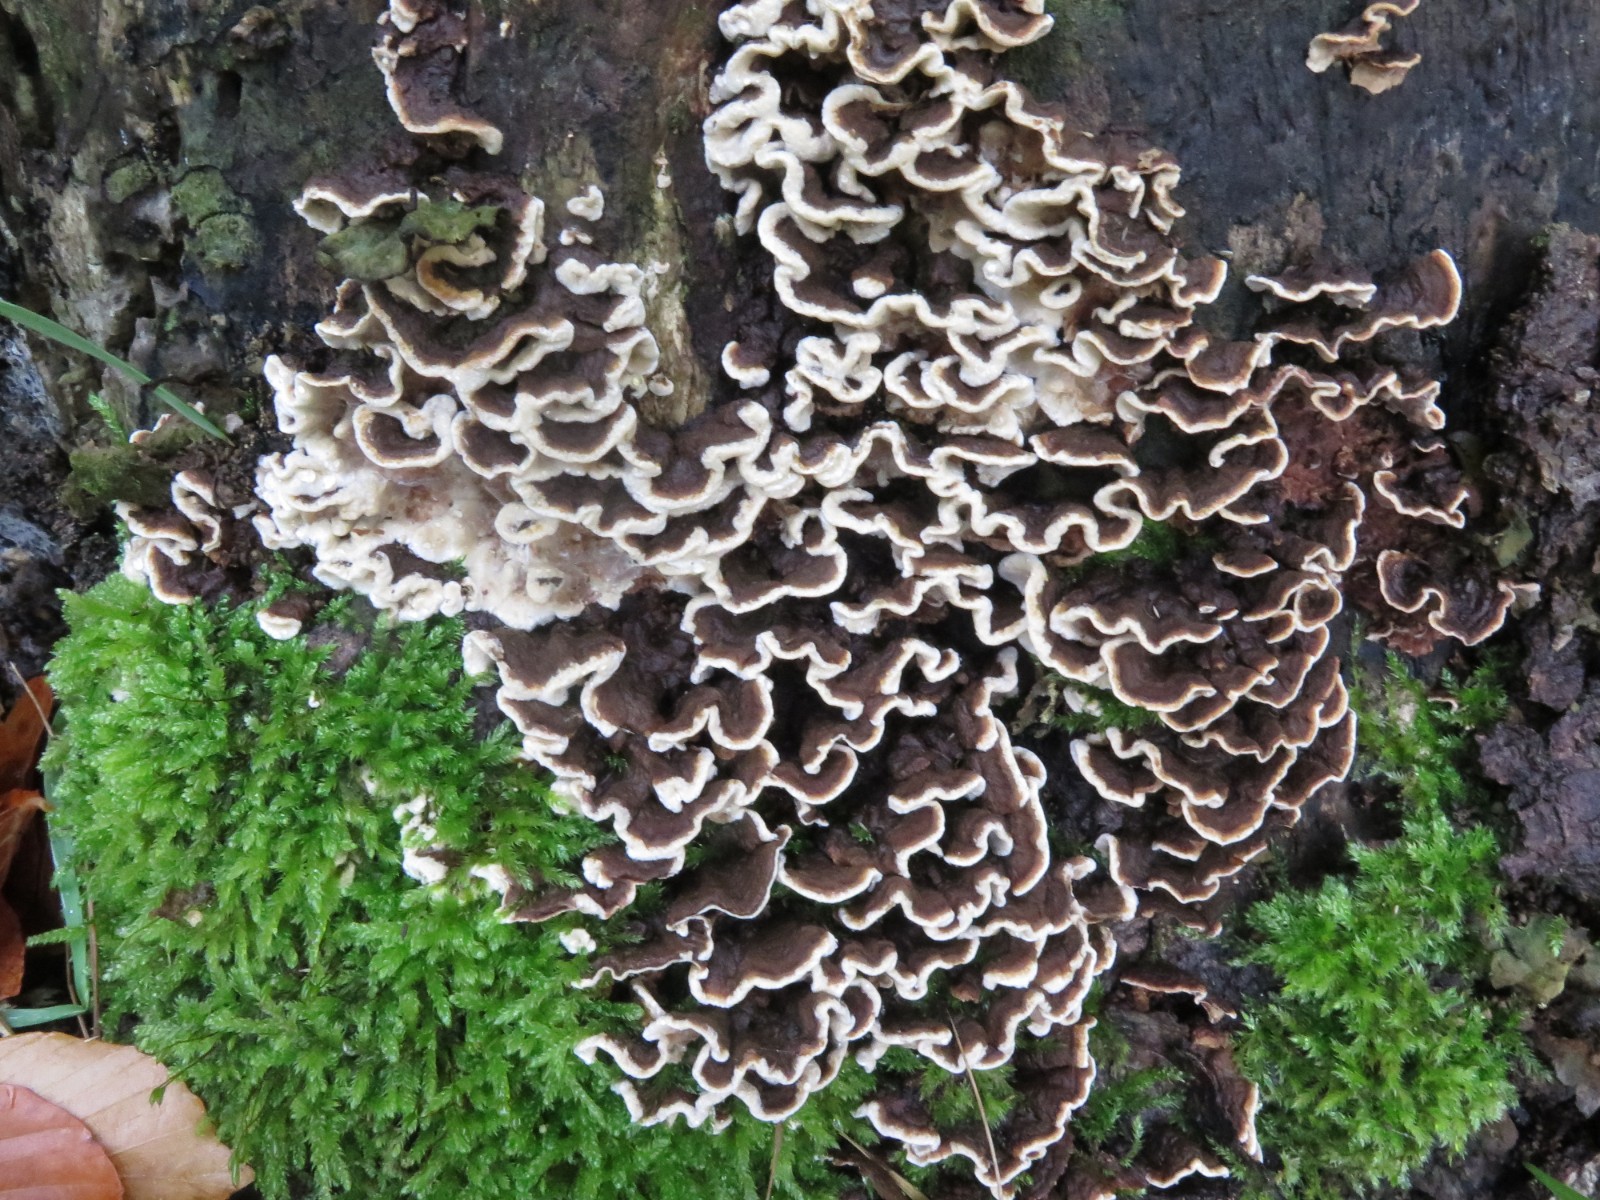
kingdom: Fungi
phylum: Basidiomycota
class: Agaricomycetes
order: Russulales
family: Hericiaceae
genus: Laxitextum
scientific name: Laxitextum bicolor
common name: tvefarvet filtskind
